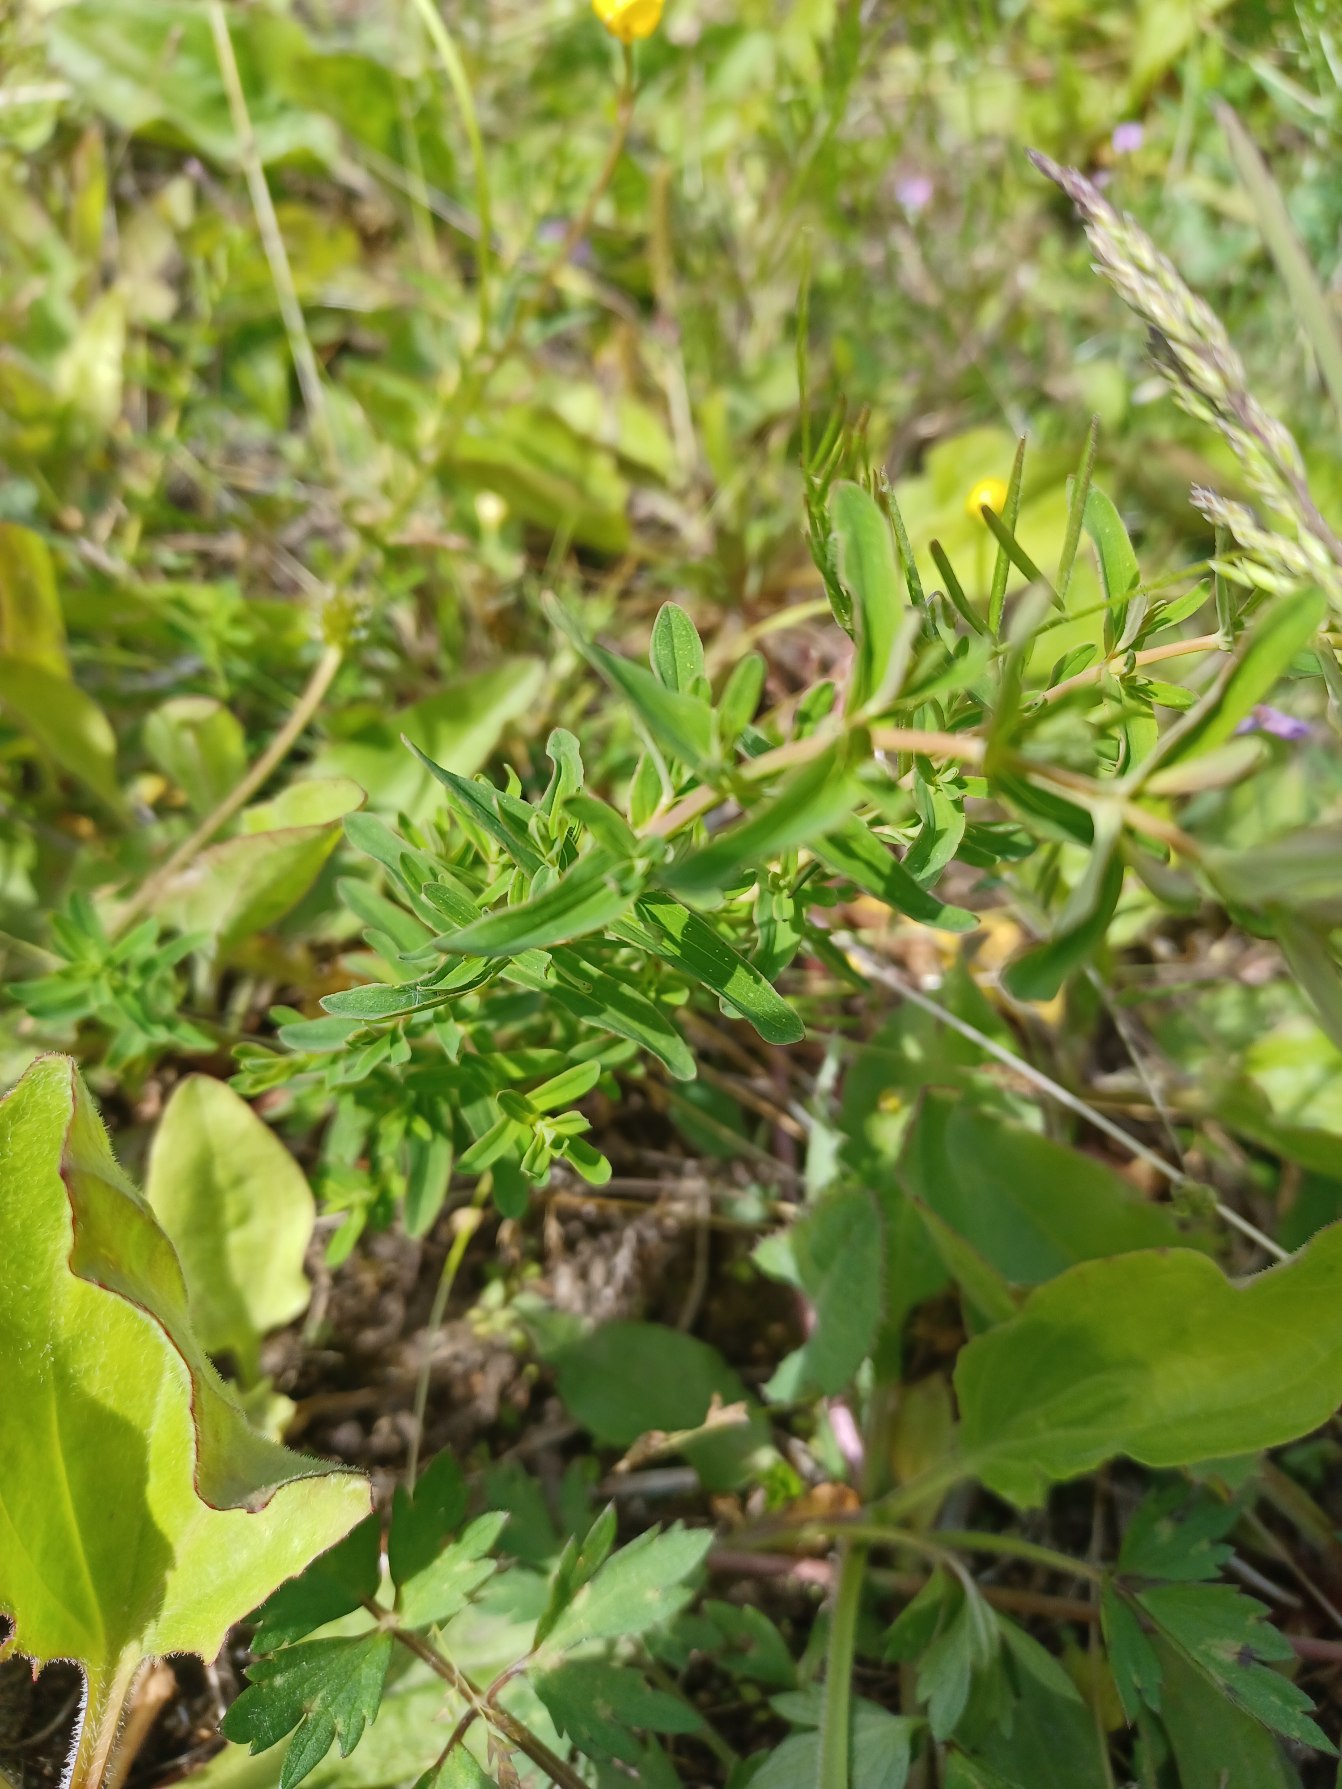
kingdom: Plantae
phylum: Tracheophyta
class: Magnoliopsida
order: Malpighiales
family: Hypericaceae
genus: Hypericum
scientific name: Hypericum perforatum
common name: Prikbladet perikon
